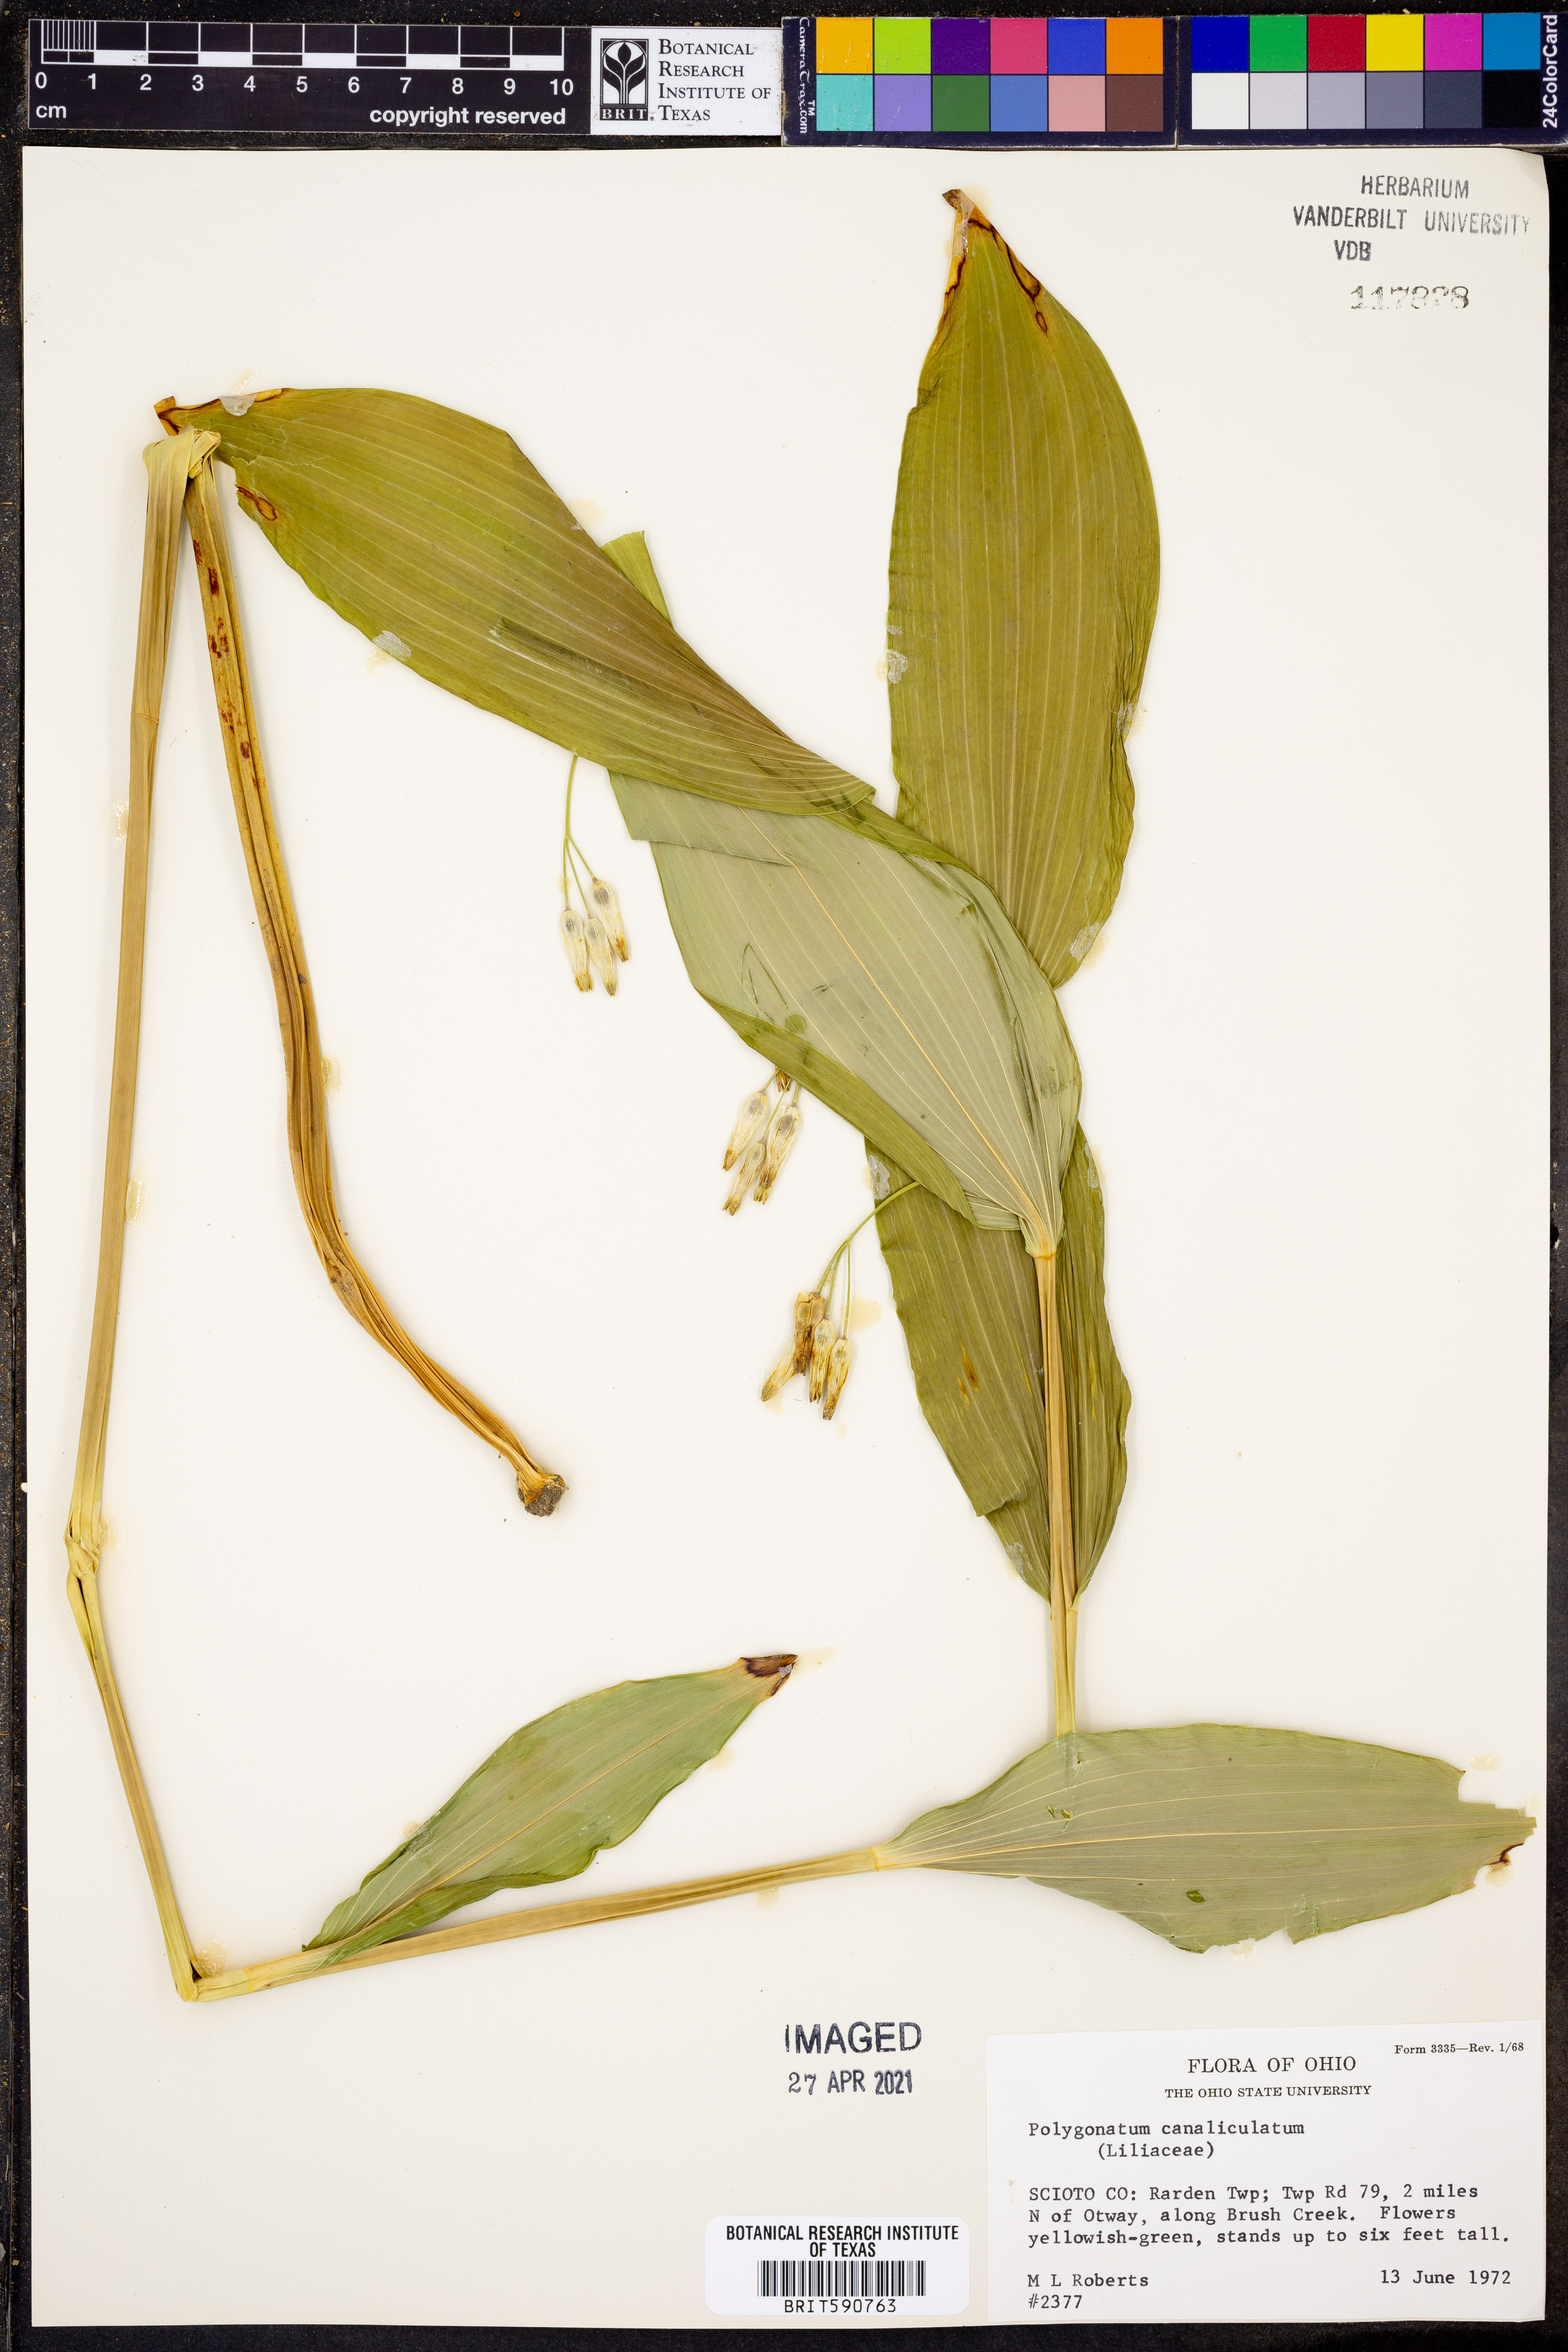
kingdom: Plantae
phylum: Tracheophyta
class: Liliopsida
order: Asparagales
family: Asparagaceae
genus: Polygonatum
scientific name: Polygonatum biflorum
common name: American solomon's-seal
